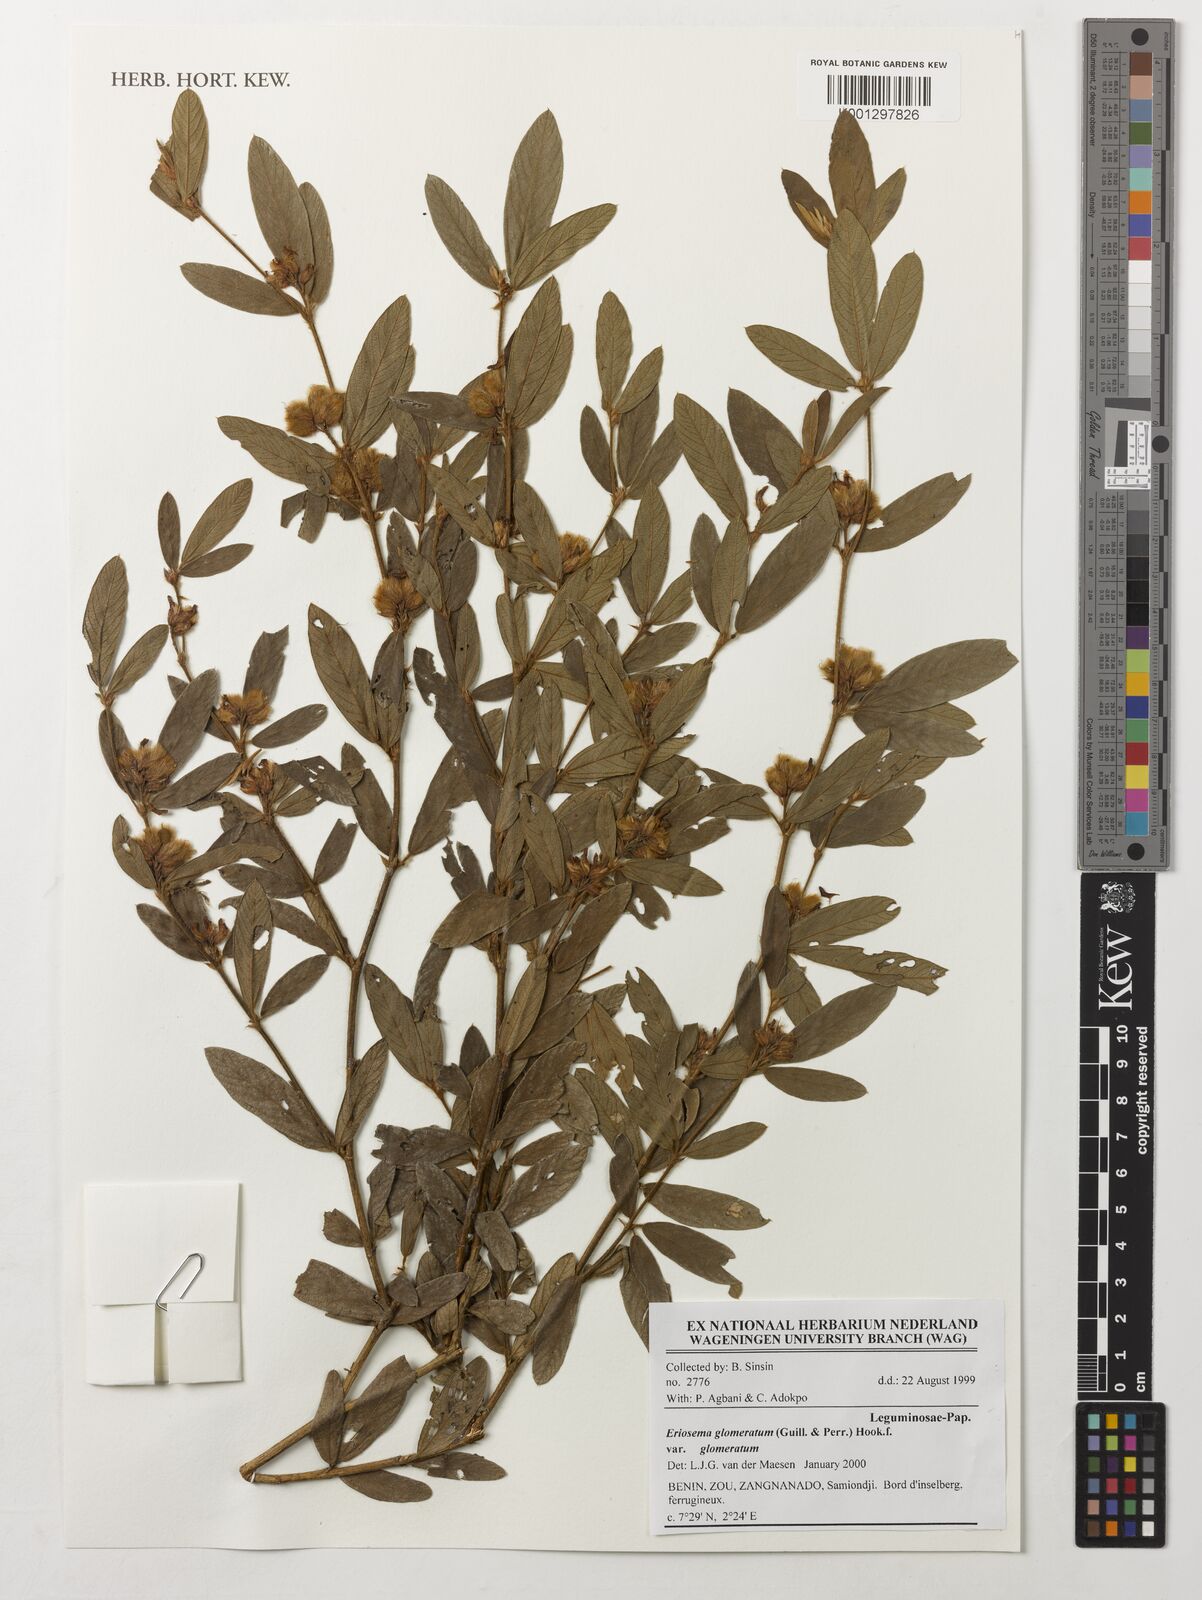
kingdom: Plantae
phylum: Tracheophyta
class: Magnoliopsida
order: Fabales
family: Fabaceae
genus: Eriosema
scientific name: Eriosema glomeratum
